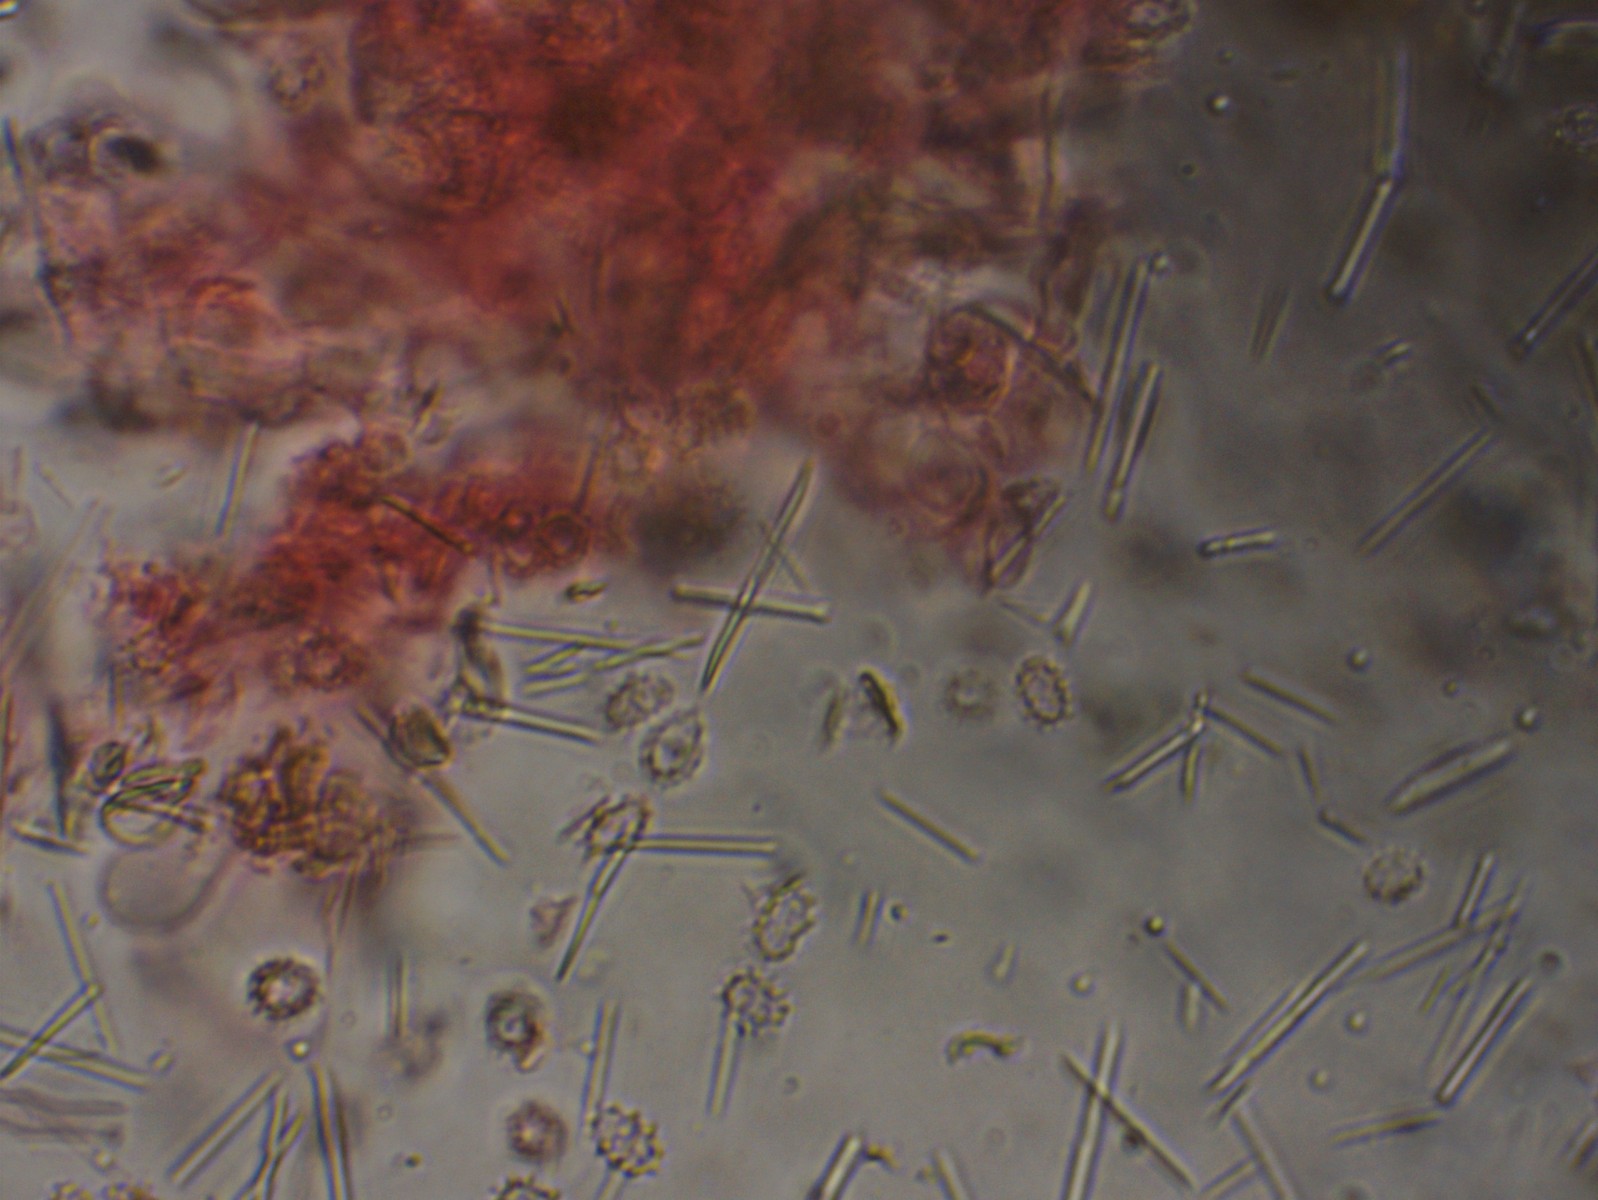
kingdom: Fungi
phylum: Basidiomycota
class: Agaricomycetes
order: Trechisporales
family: Sistotremataceae
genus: Trechispora
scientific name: Trechispora dimitica
